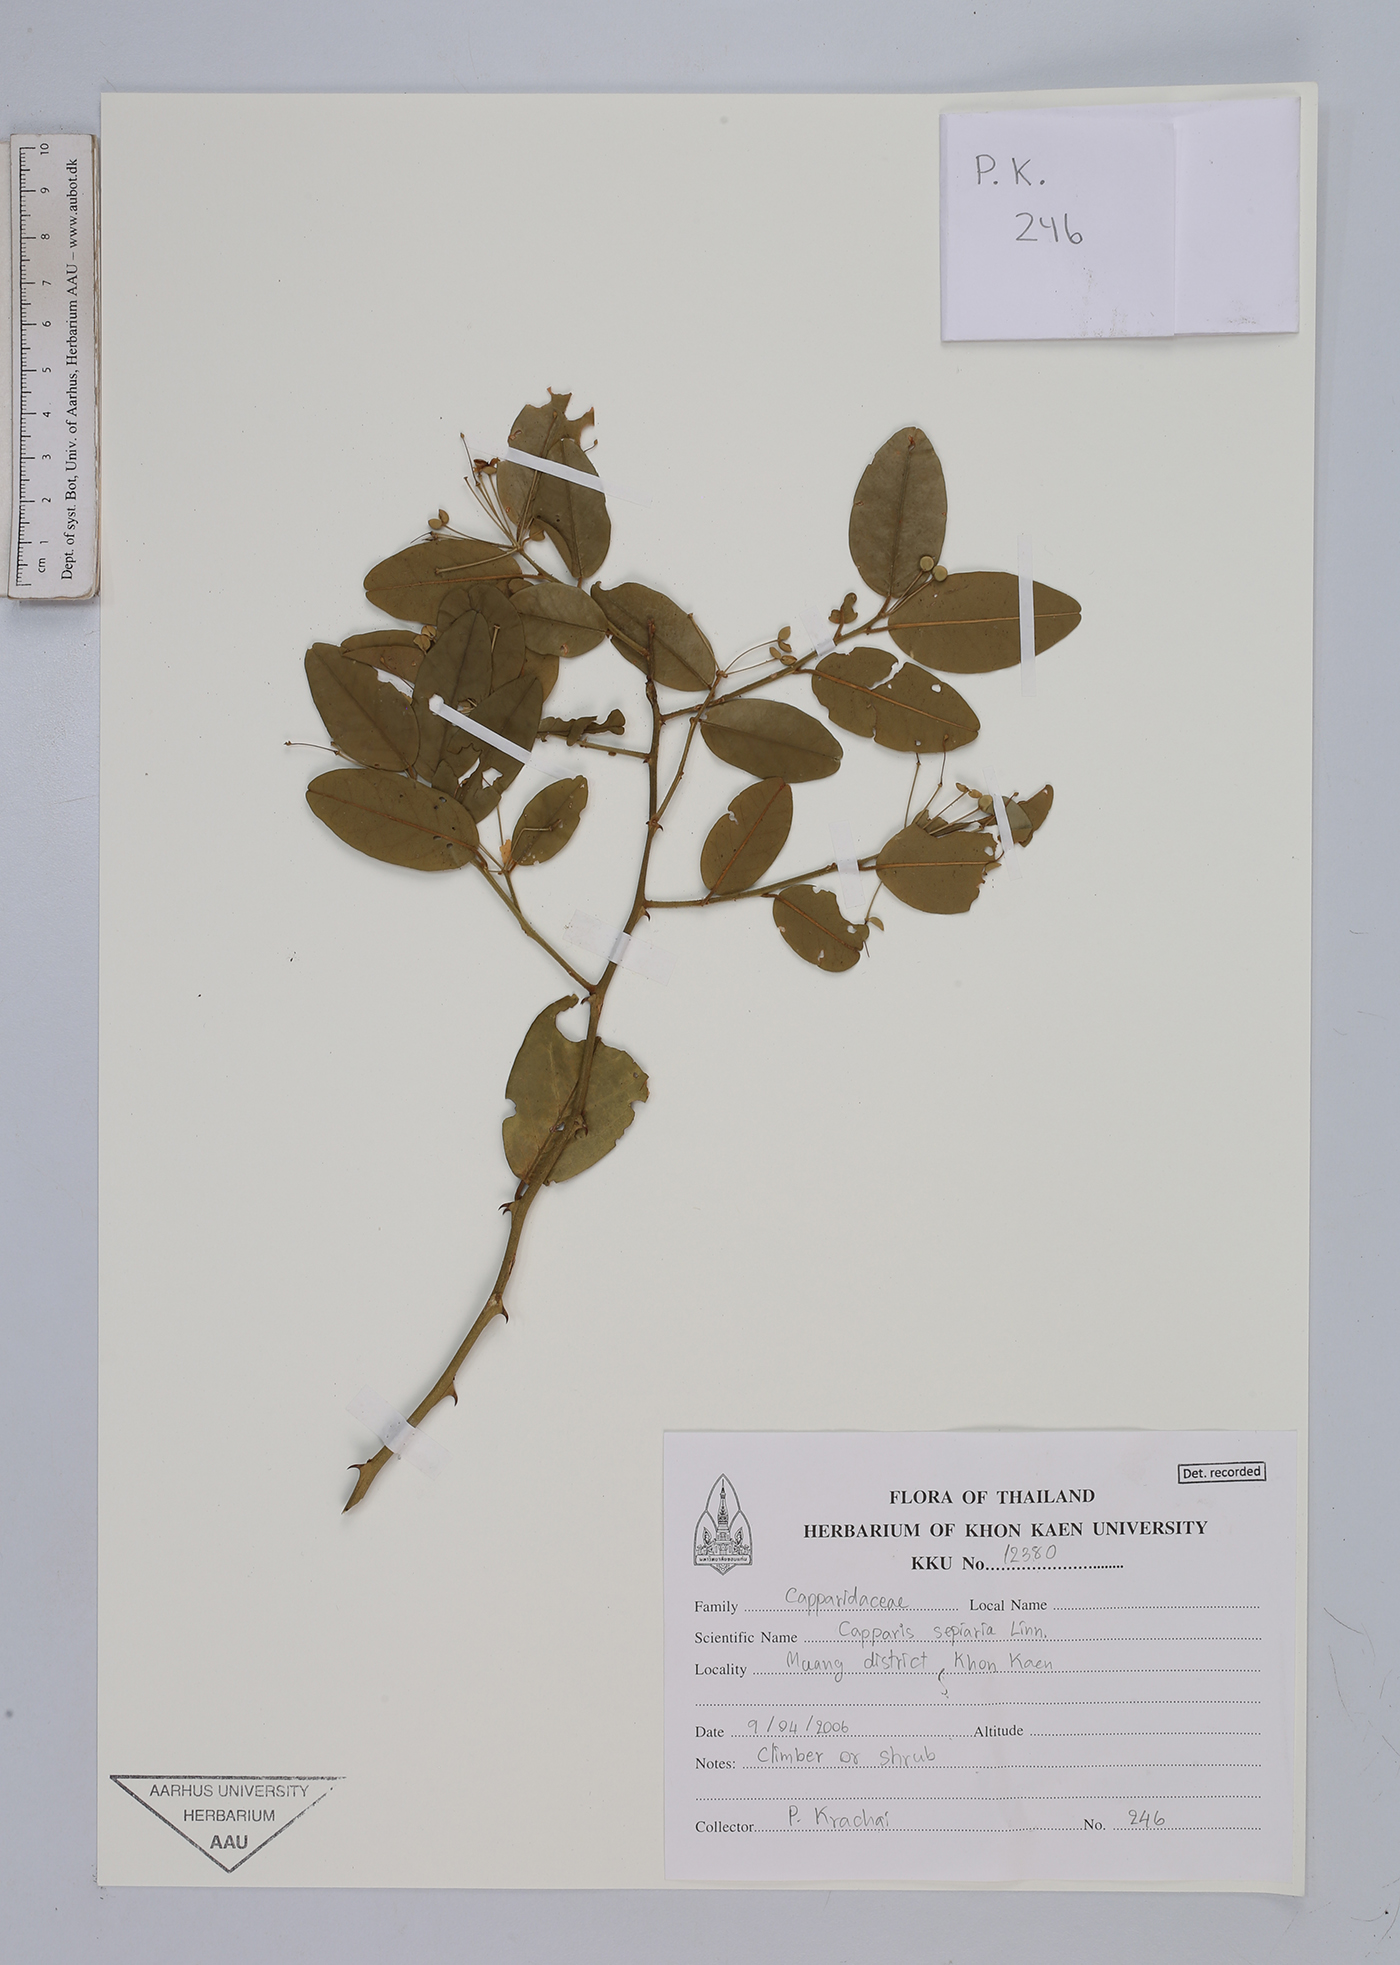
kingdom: Plantae
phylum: Tracheophyta
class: Magnoliopsida
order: Brassicales
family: Capparaceae
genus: Capparis
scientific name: Capparis sepiaria
